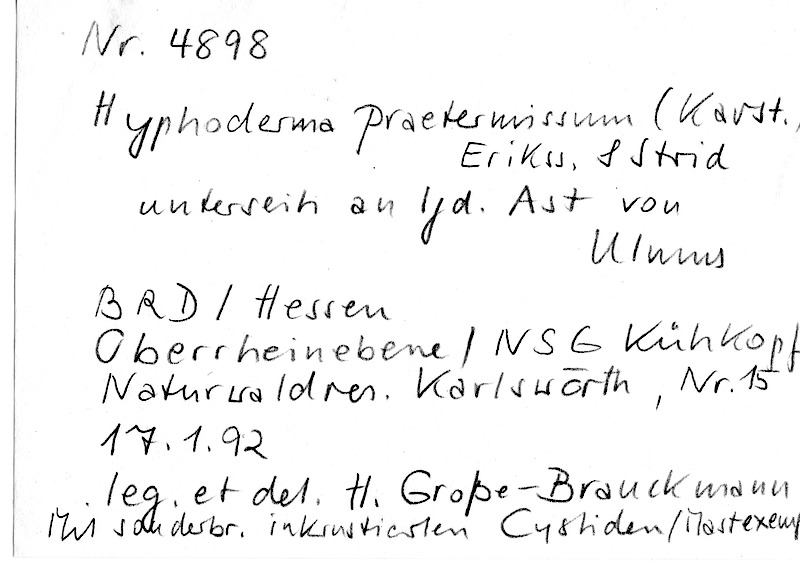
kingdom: Fungi
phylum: Basidiomycota
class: Agaricomycetes
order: Hymenochaetales
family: Rickenellaceae
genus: Peniophorella
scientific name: Peniophorella praetermissa
